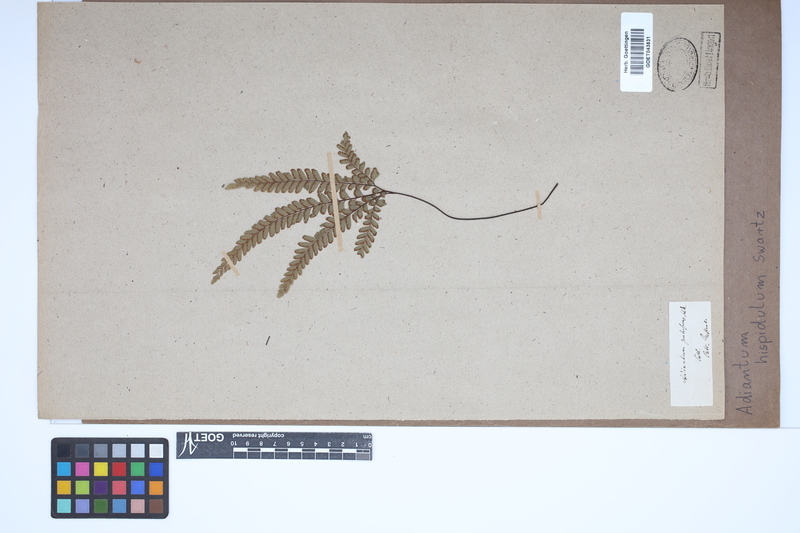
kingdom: Plantae
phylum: Tracheophyta
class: Polypodiopsida
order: Polypodiales
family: Pteridaceae
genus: Adiantum
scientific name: Adiantum hispidulum
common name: Rough maidenhair
